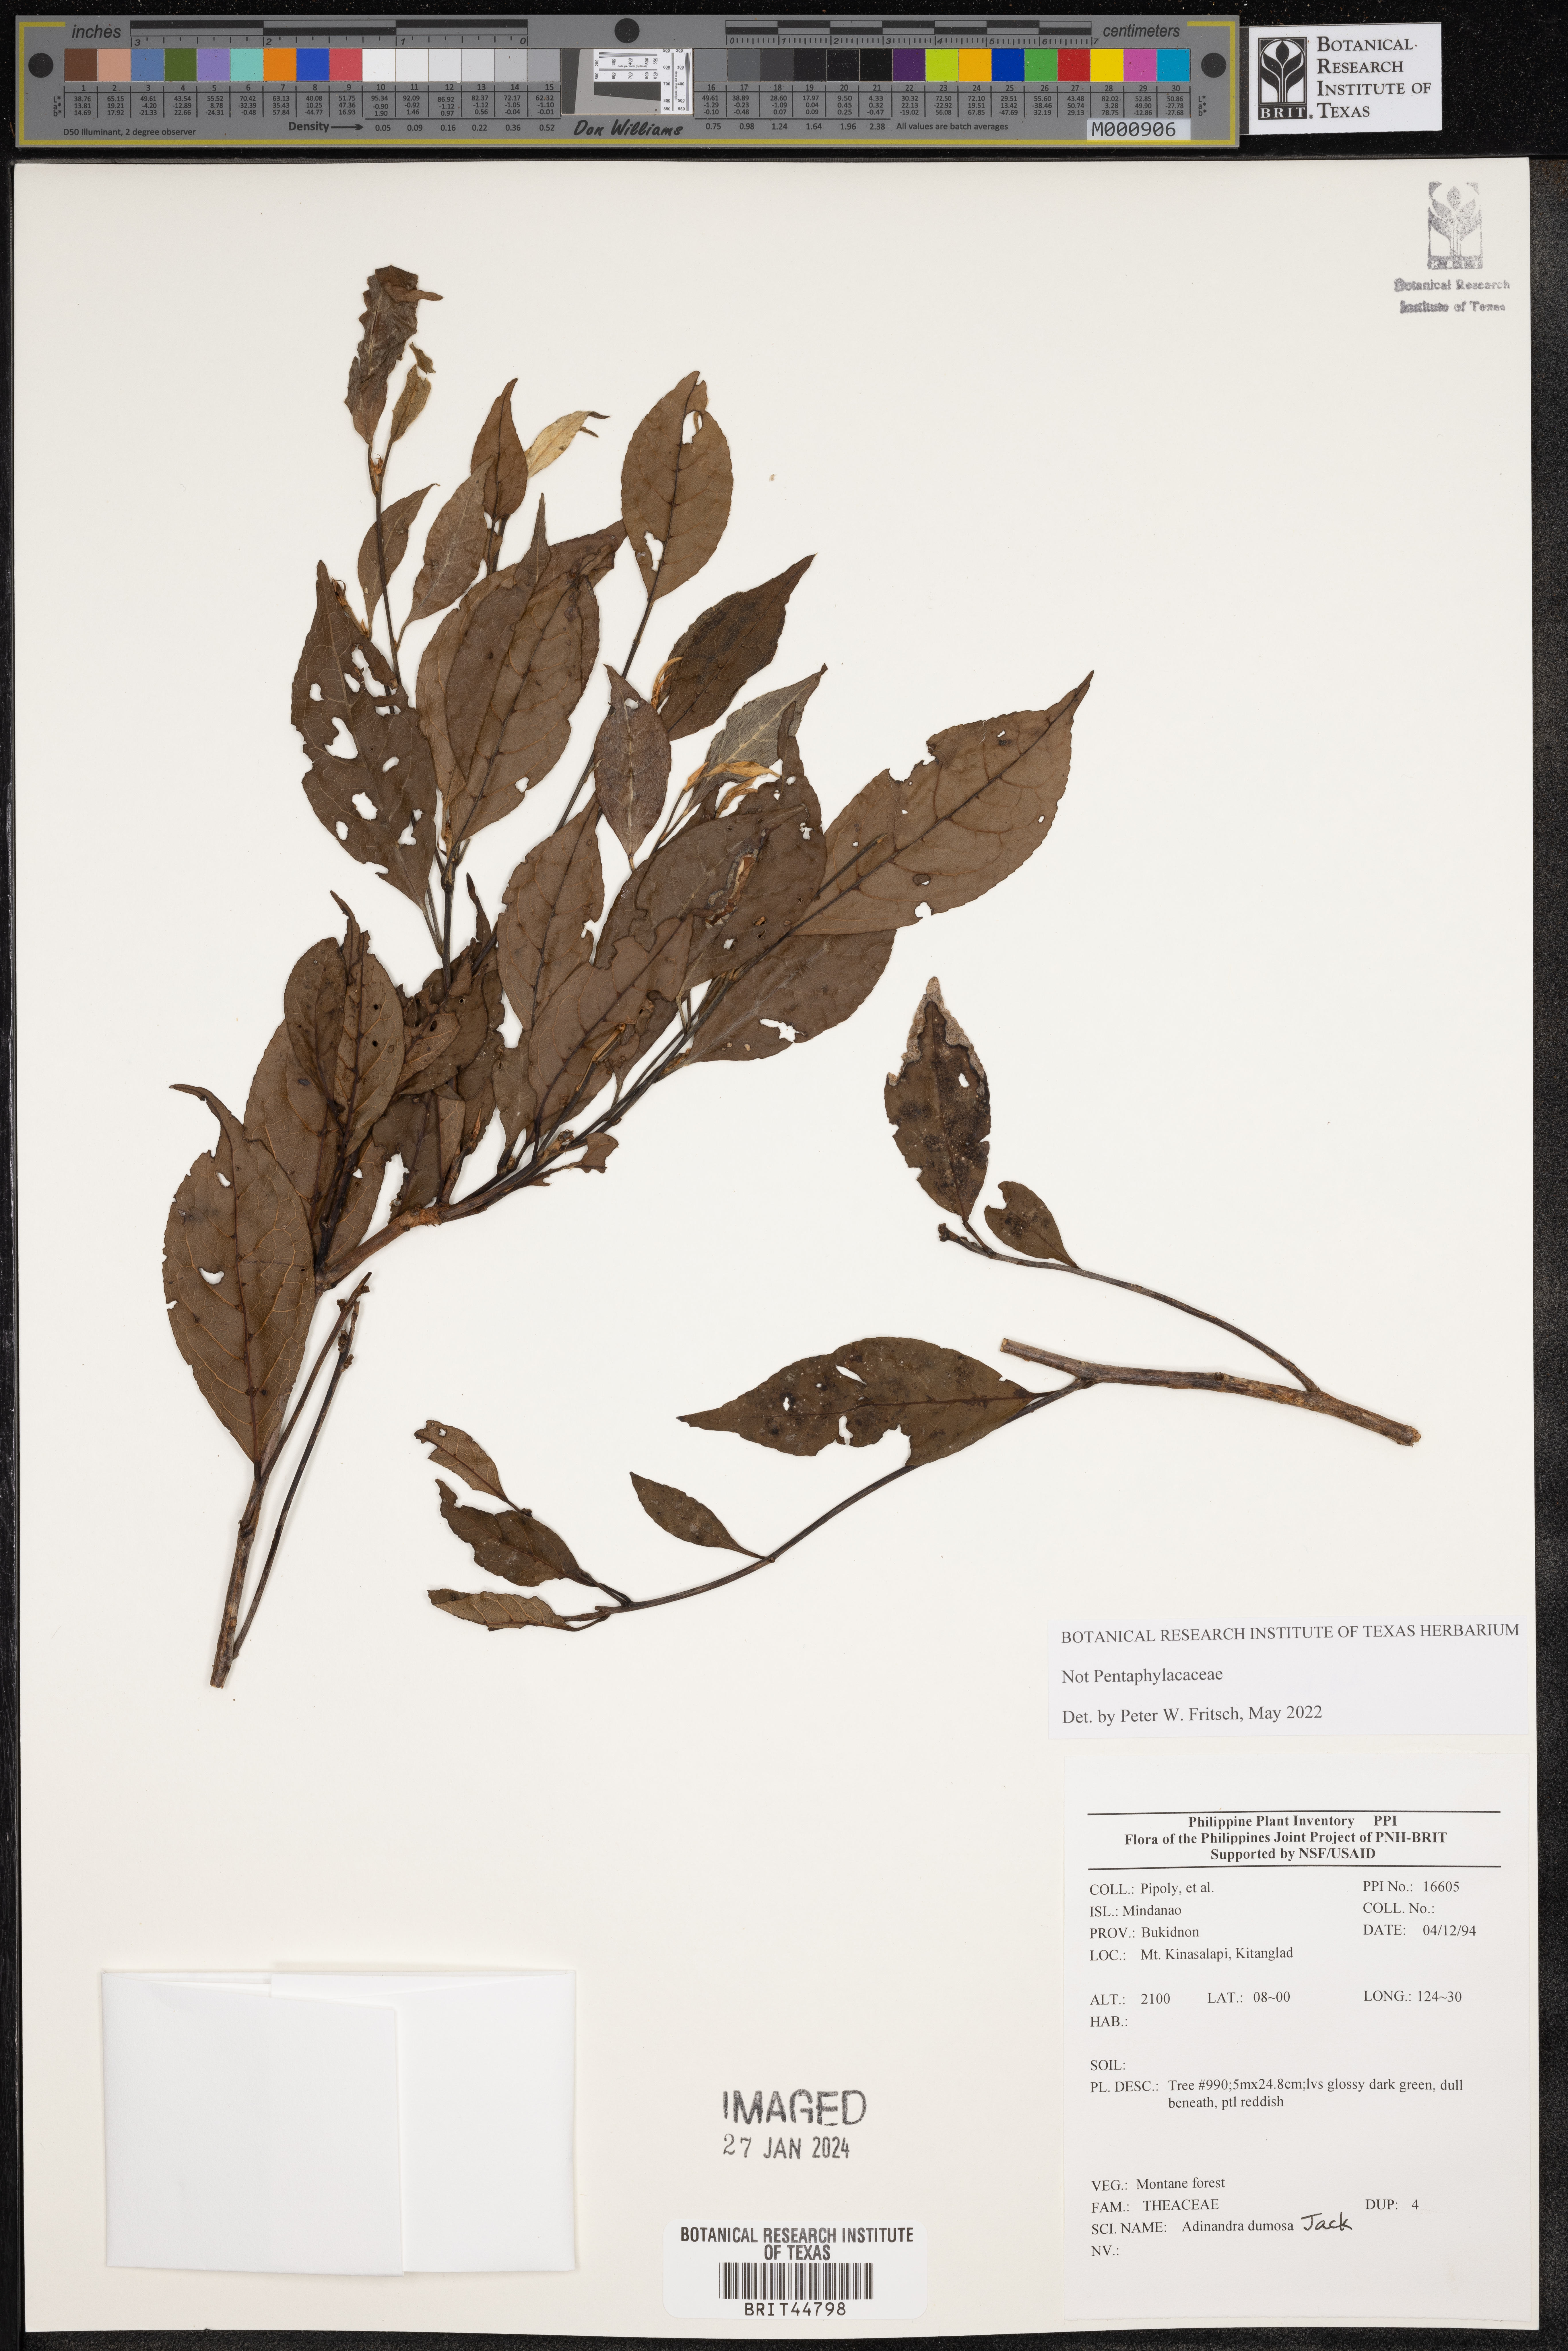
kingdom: Plantae
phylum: Tracheophyta
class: Magnoliopsida
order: Ericales
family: Pentaphylacaceae
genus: Adinandra
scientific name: Adinandra dumosa
